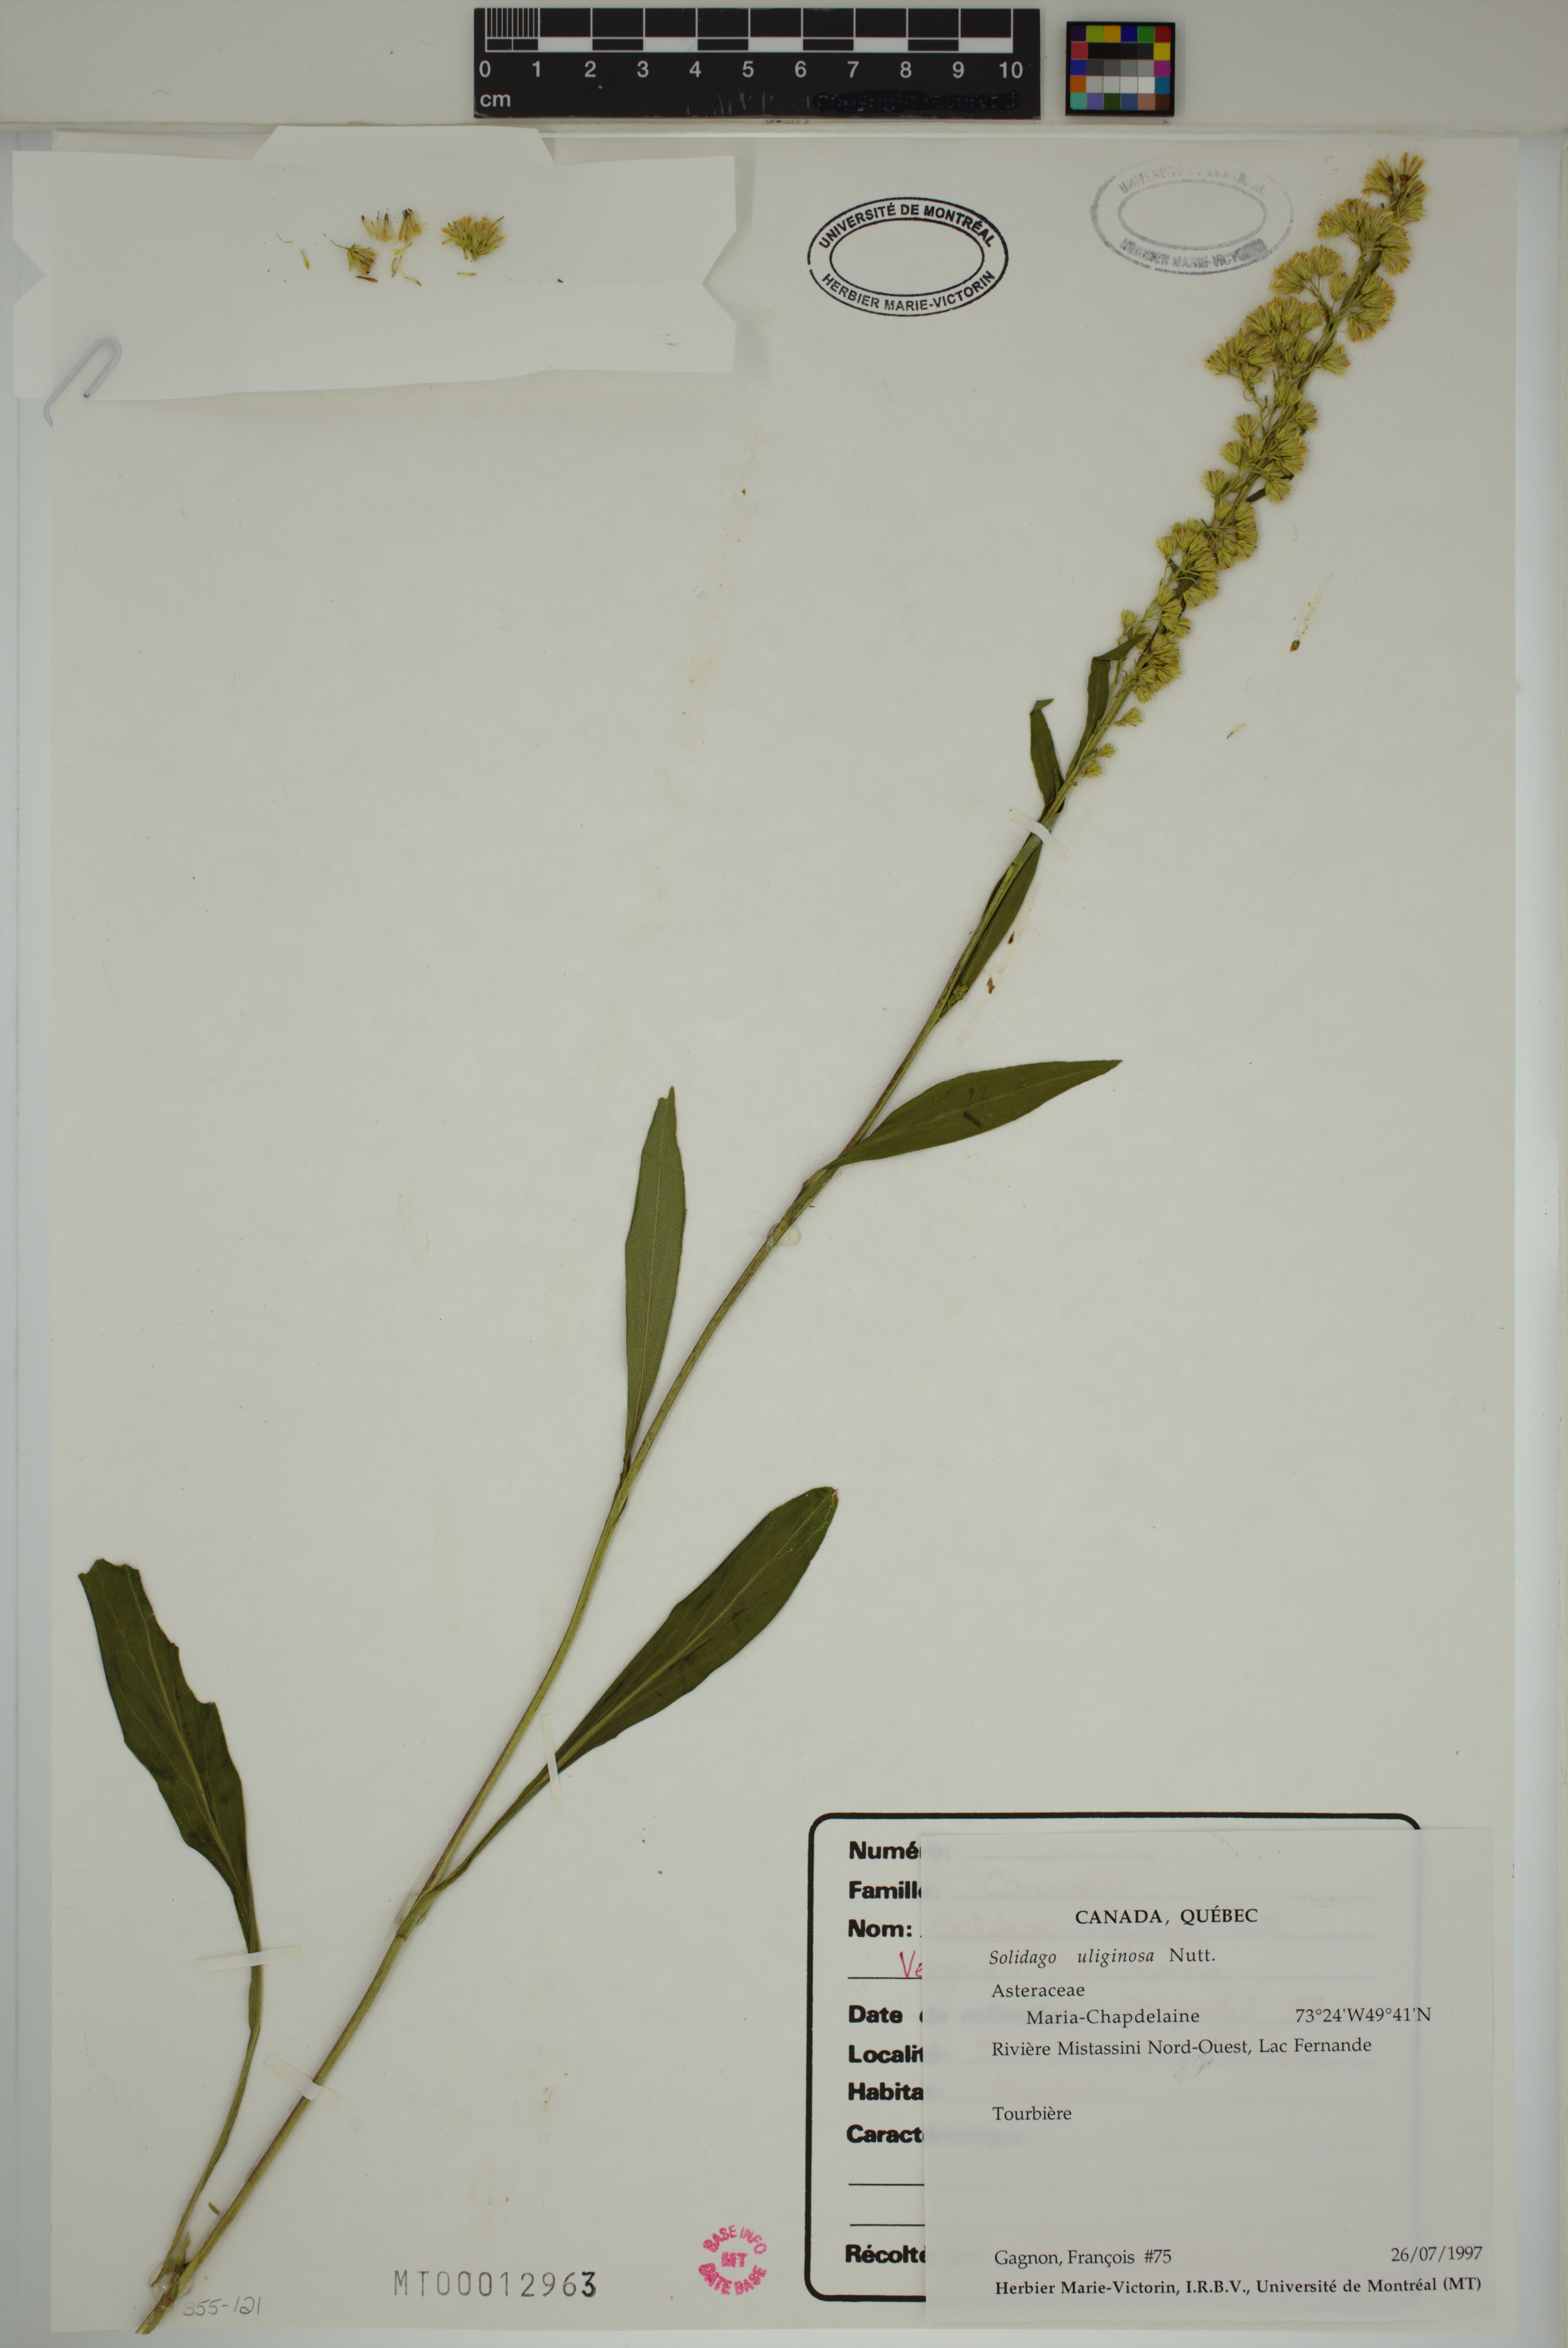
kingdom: Plantae
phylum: Tracheophyta
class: Magnoliopsida
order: Asterales
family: Asteraceae
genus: Solidago
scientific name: Solidago uliginosa
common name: Bog goldenrod
